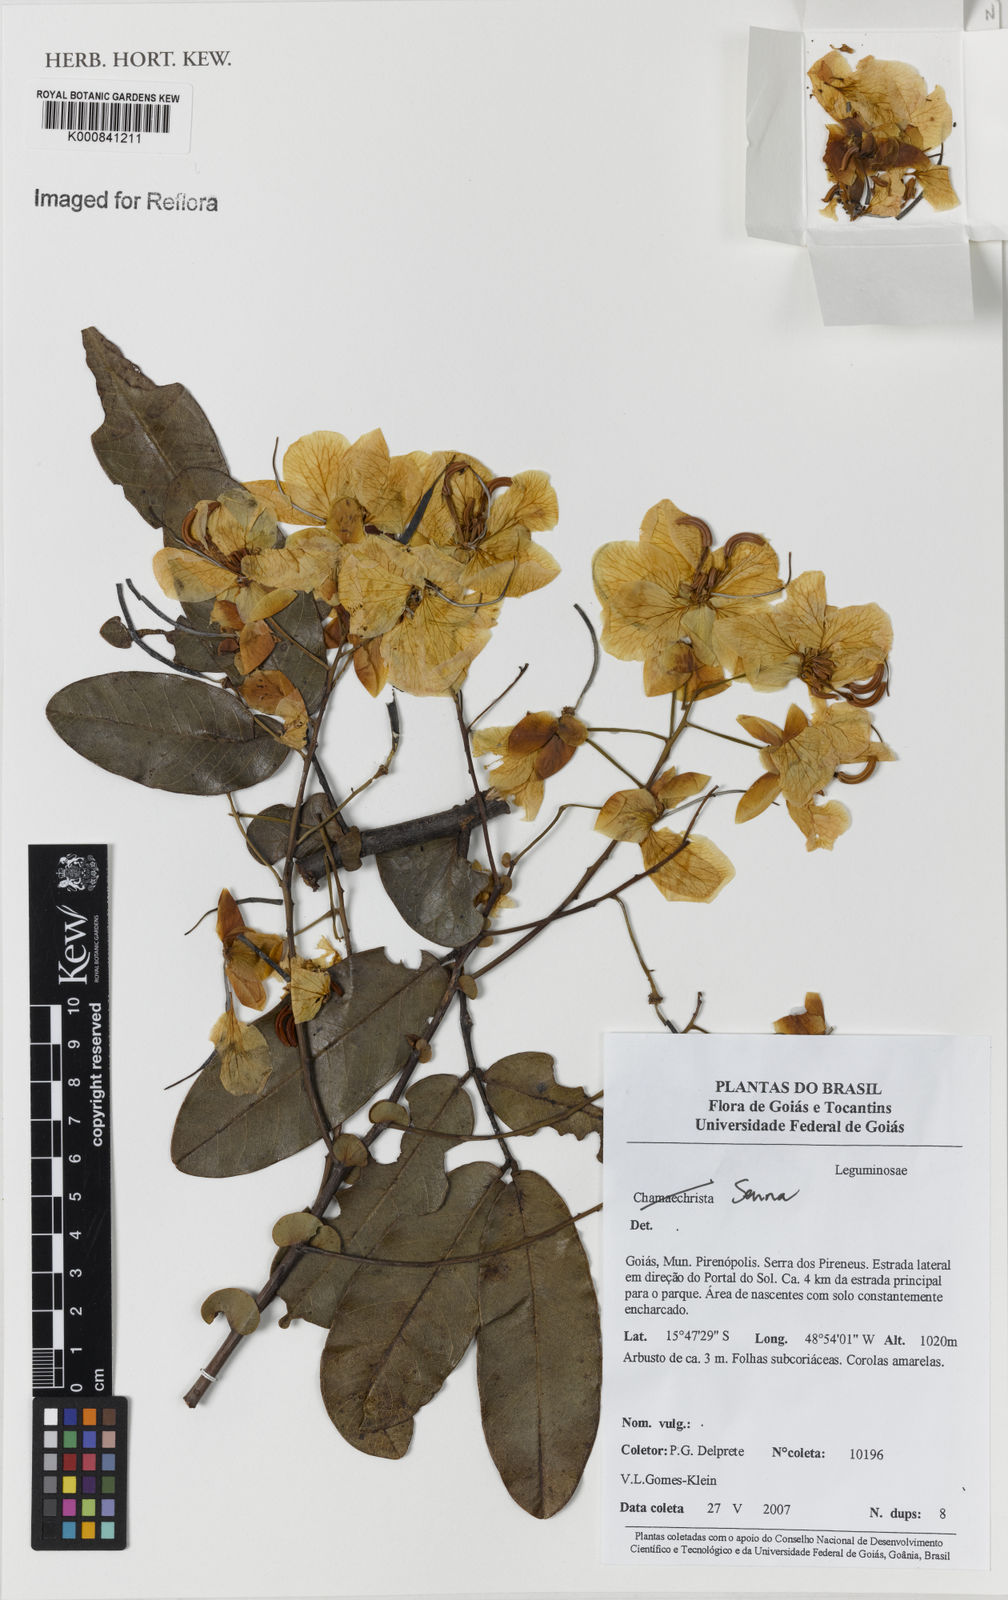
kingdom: Plantae
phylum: Tracheophyta
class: Magnoliopsida
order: Fabales
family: Fabaceae
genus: Senna
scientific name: Senna corifolia
